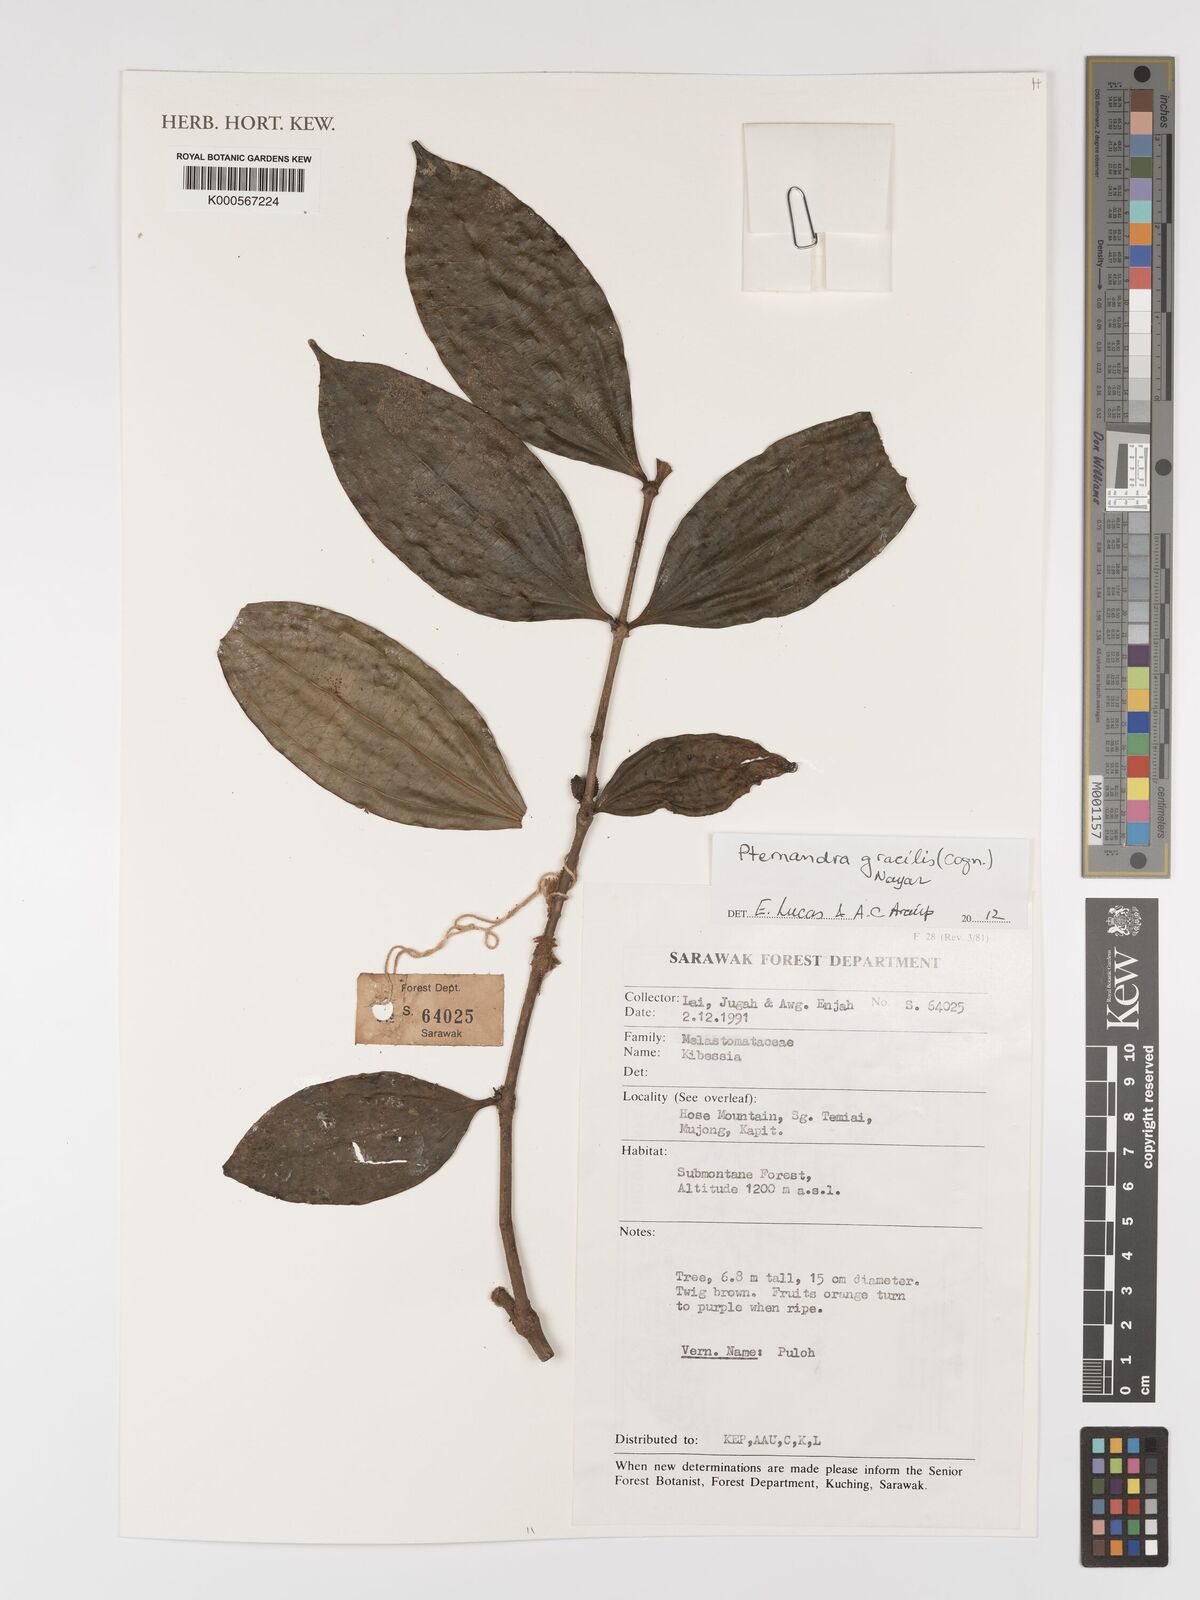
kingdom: Plantae
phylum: Tracheophyta
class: Magnoliopsida
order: Myrtales
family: Melastomataceae
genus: Pternandra
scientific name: Pternandra gracilis
